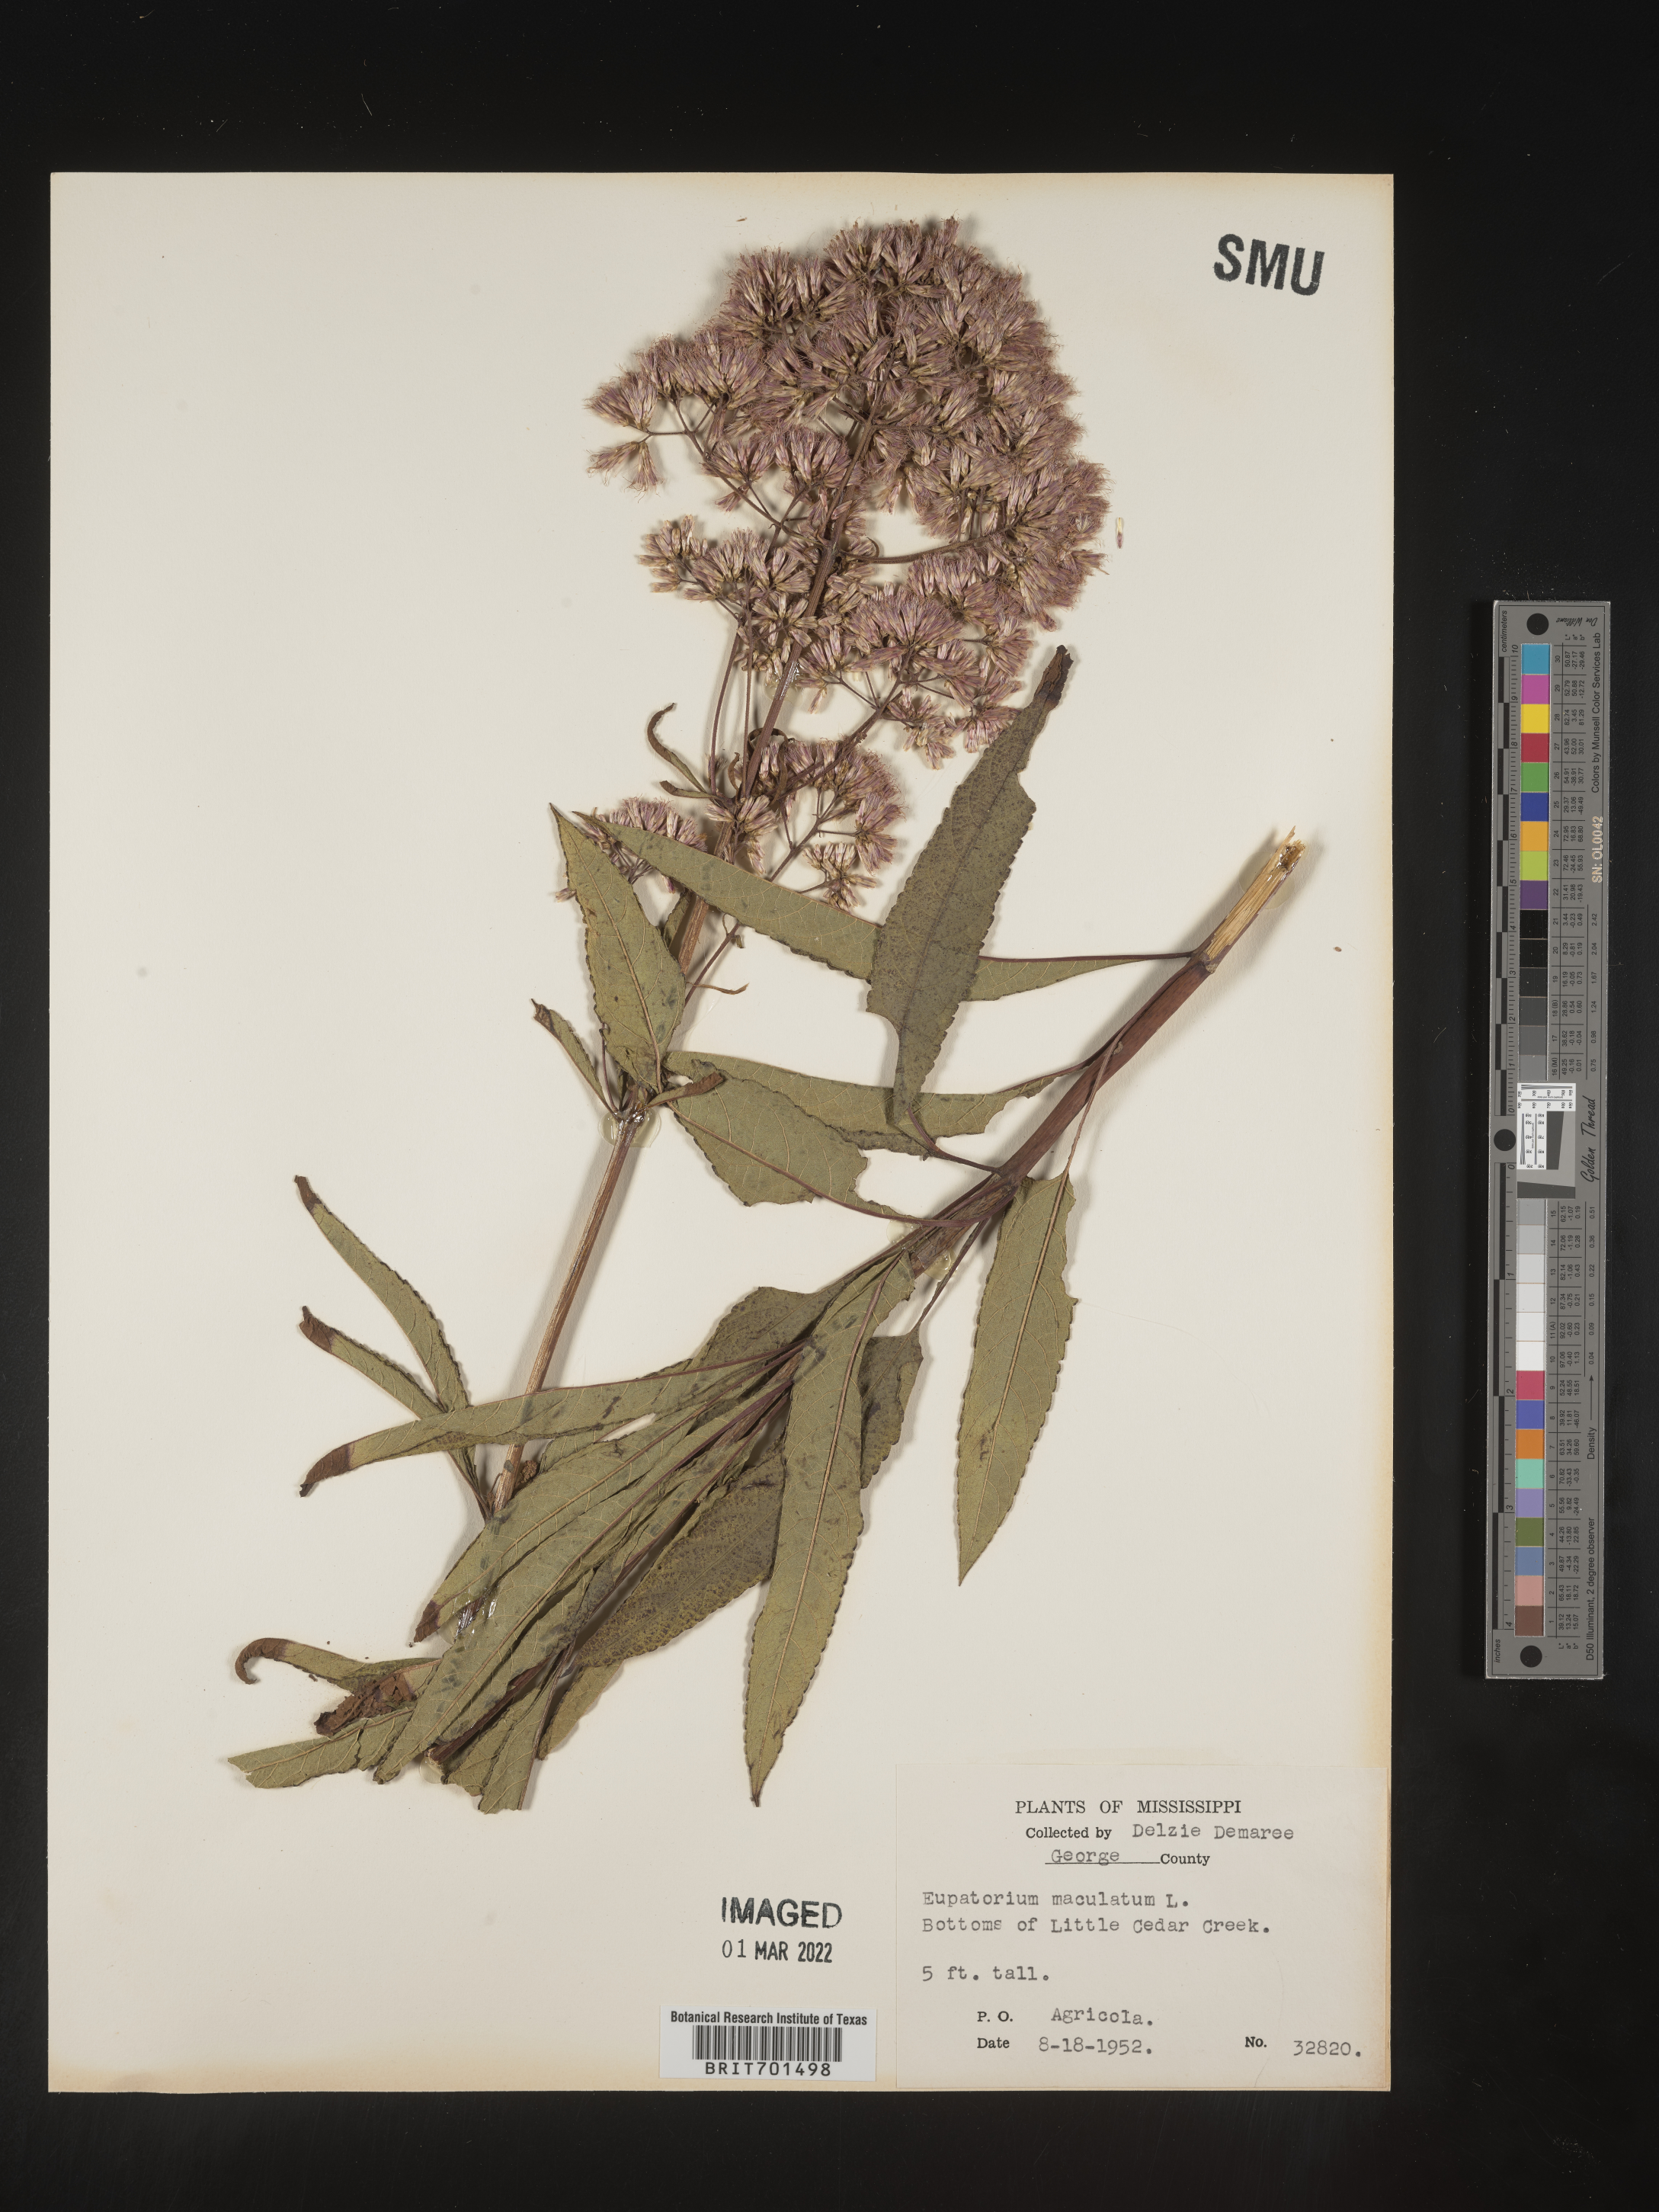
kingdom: Plantae
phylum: Tracheophyta
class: Magnoliopsida
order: Asterales
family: Asteraceae
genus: Eutrochium
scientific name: Eutrochium maculatum
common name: Spotted joe pye weed
